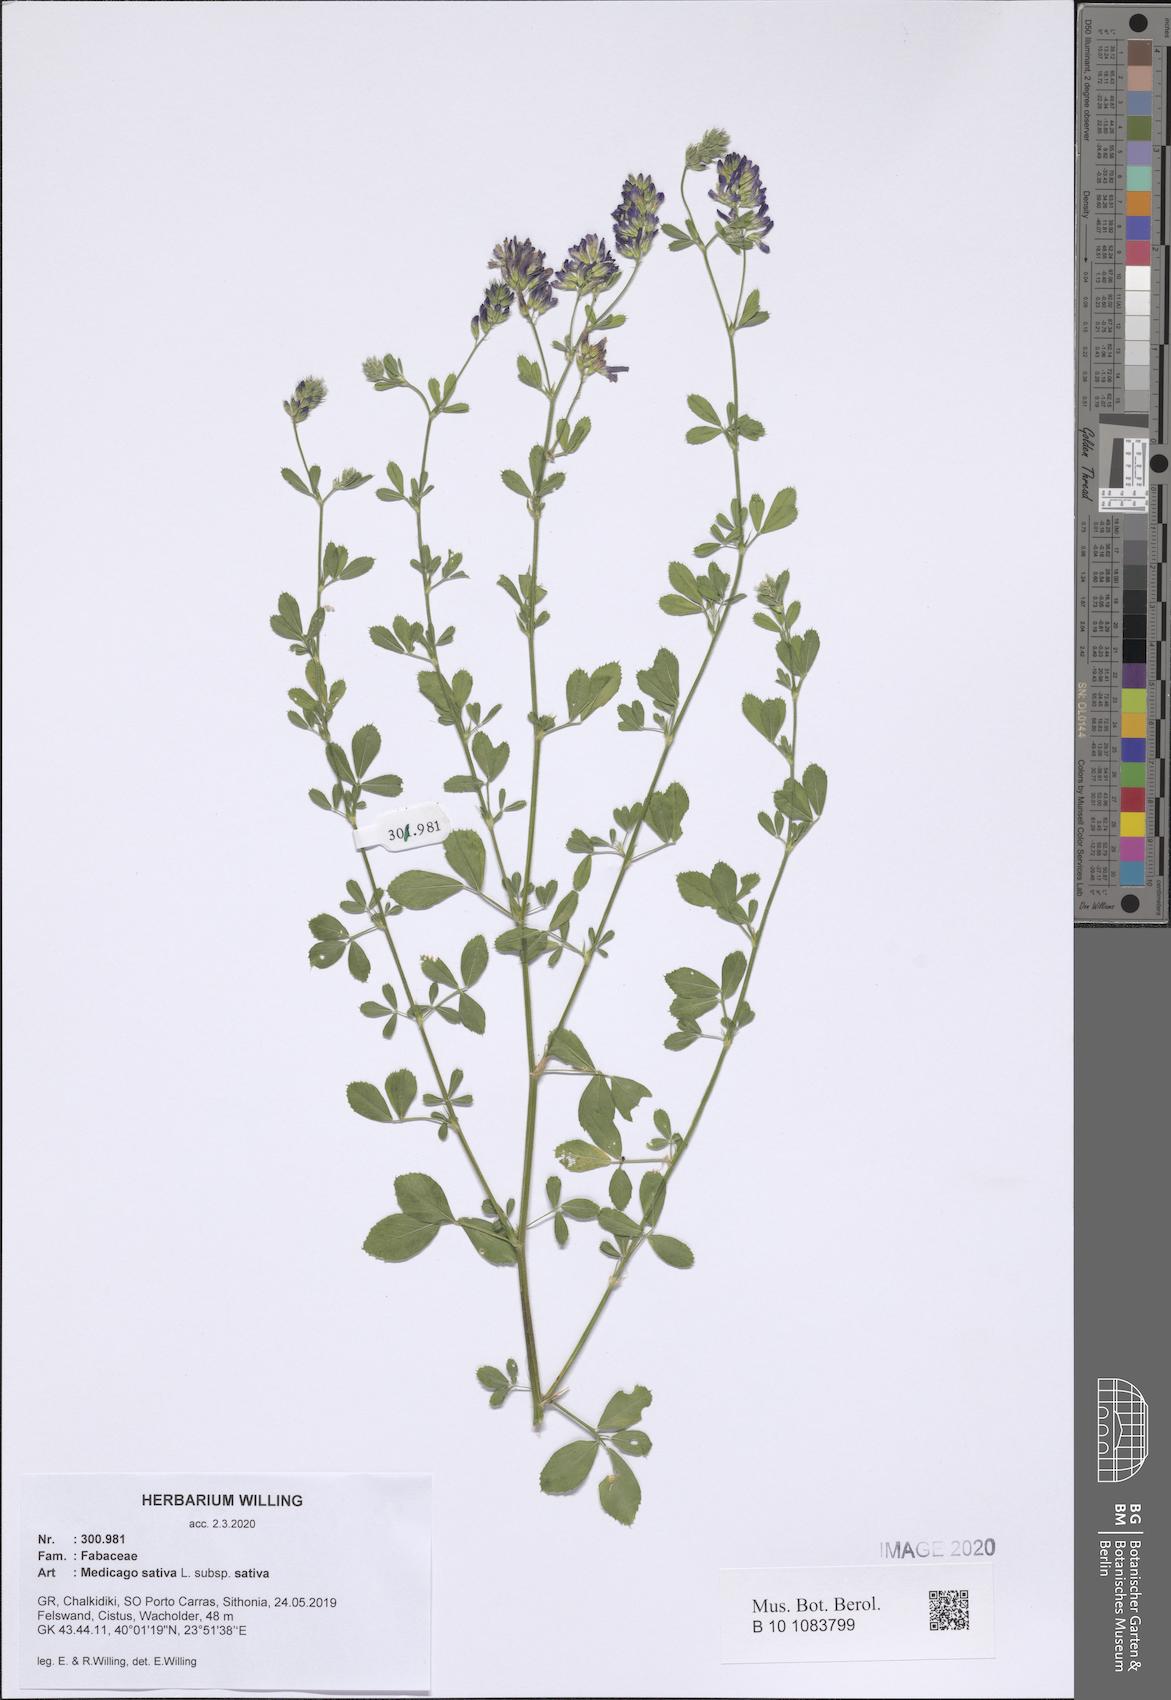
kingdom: Plantae
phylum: Tracheophyta
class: Magnoliopsida
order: Fabales
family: Fabaceae
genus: Medicago
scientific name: Medicago sativa
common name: Alfalfa
